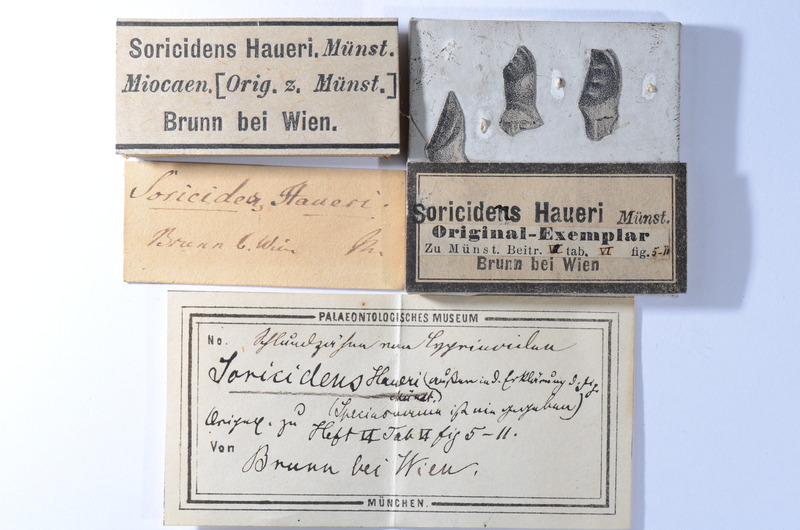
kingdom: Animalia
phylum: Chordata
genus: Soricidens
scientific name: Soricidens
